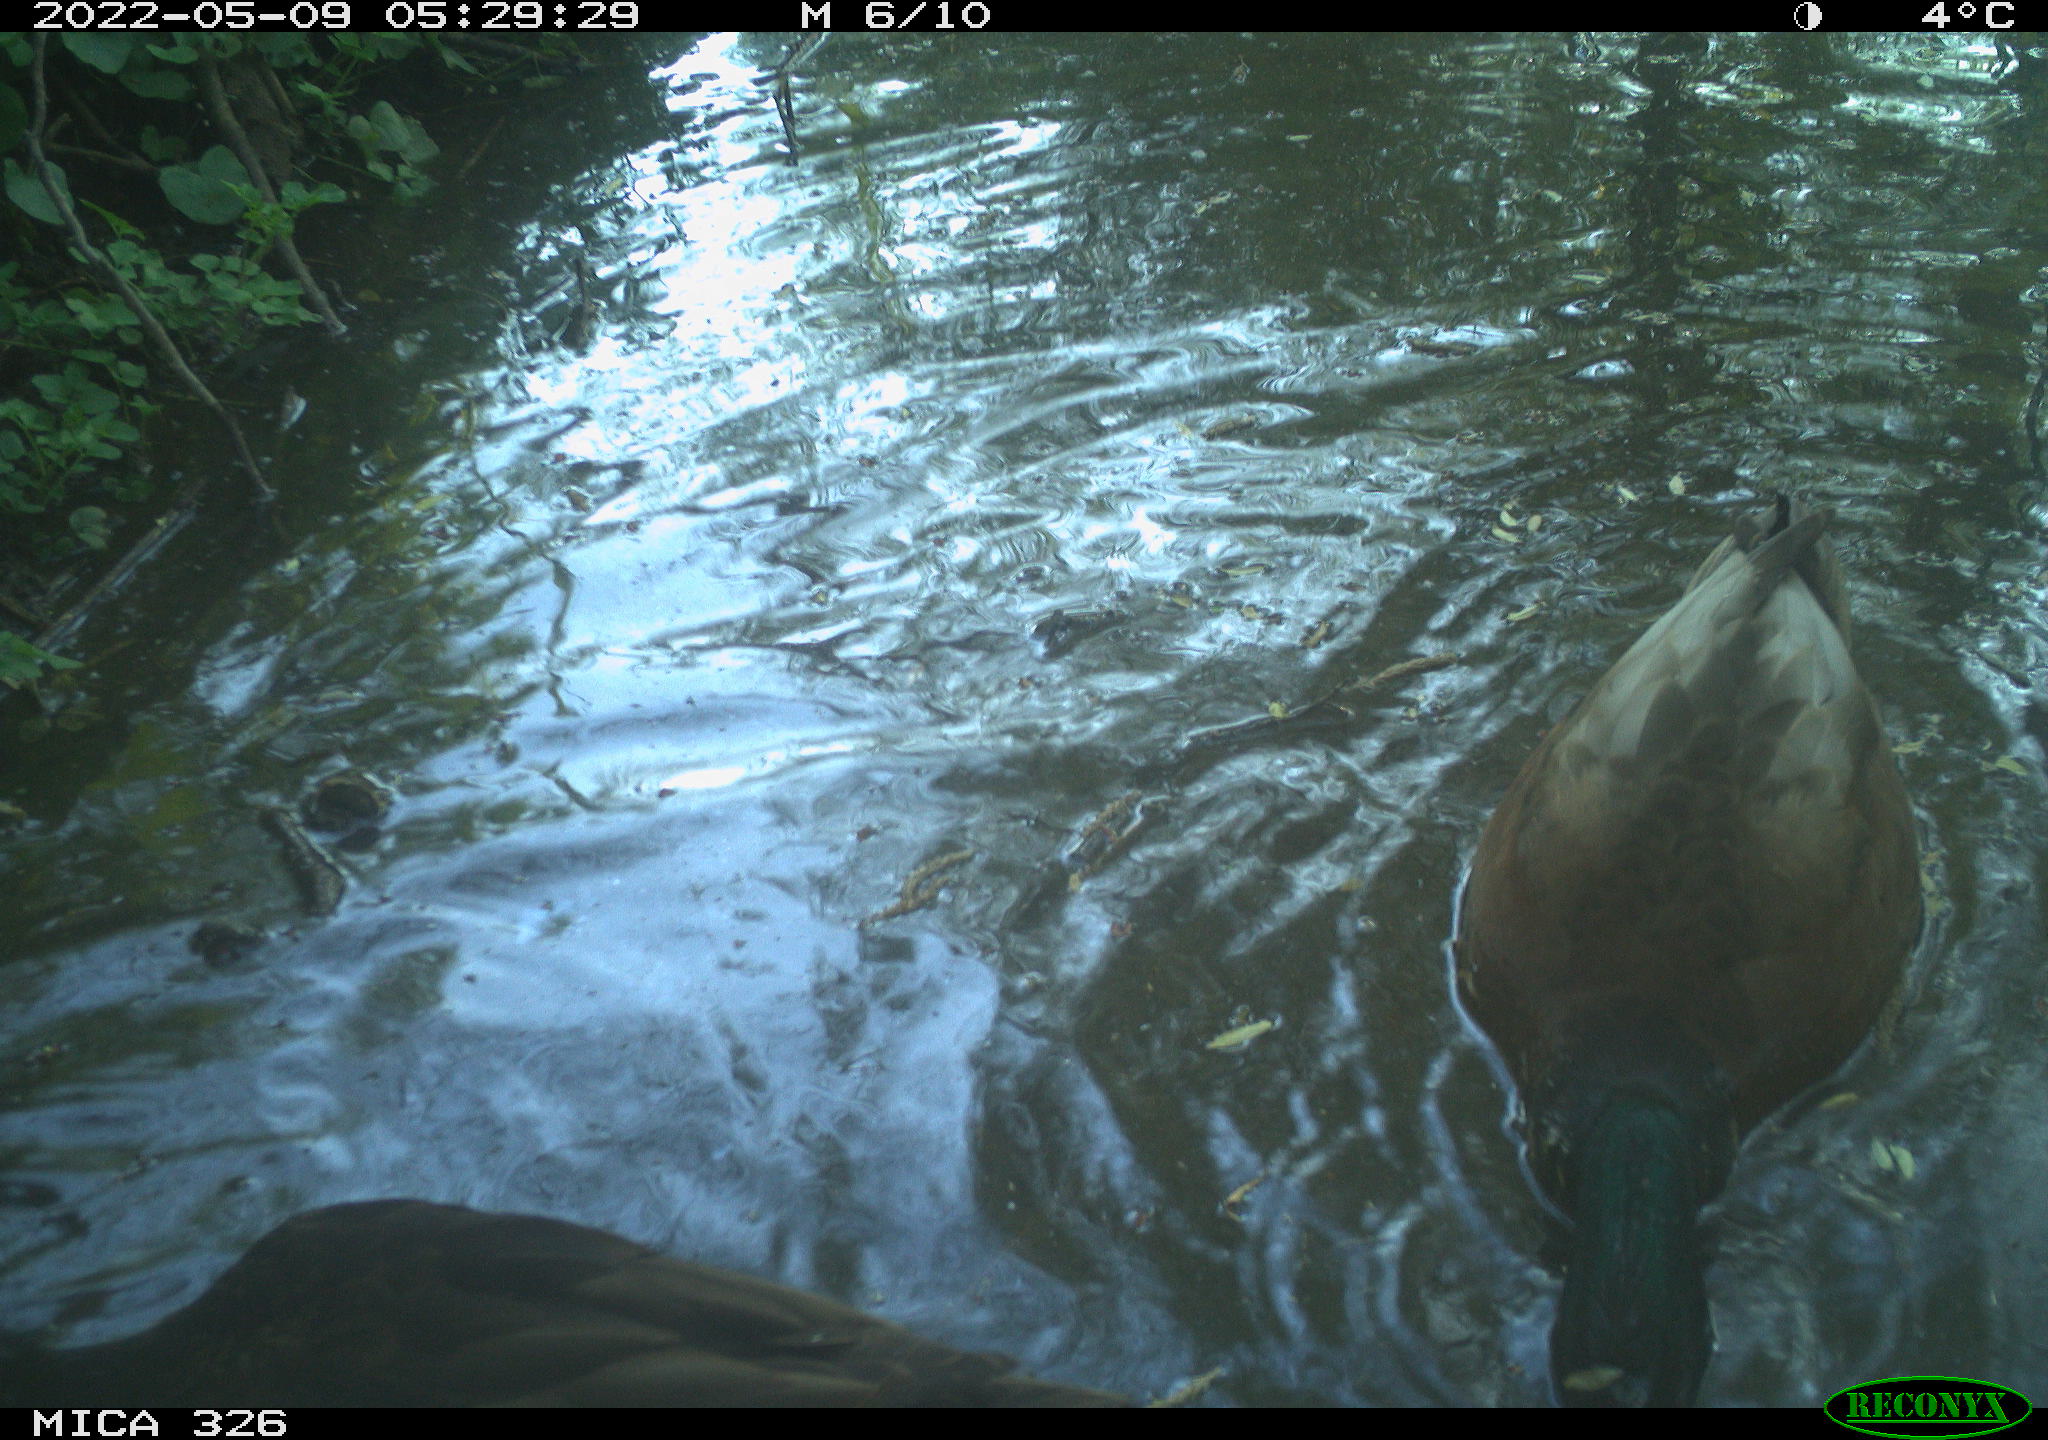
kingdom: Animalia
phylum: Chordata
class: Aves
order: Anseriformes
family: Anatidae
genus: Anas
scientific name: Anas
